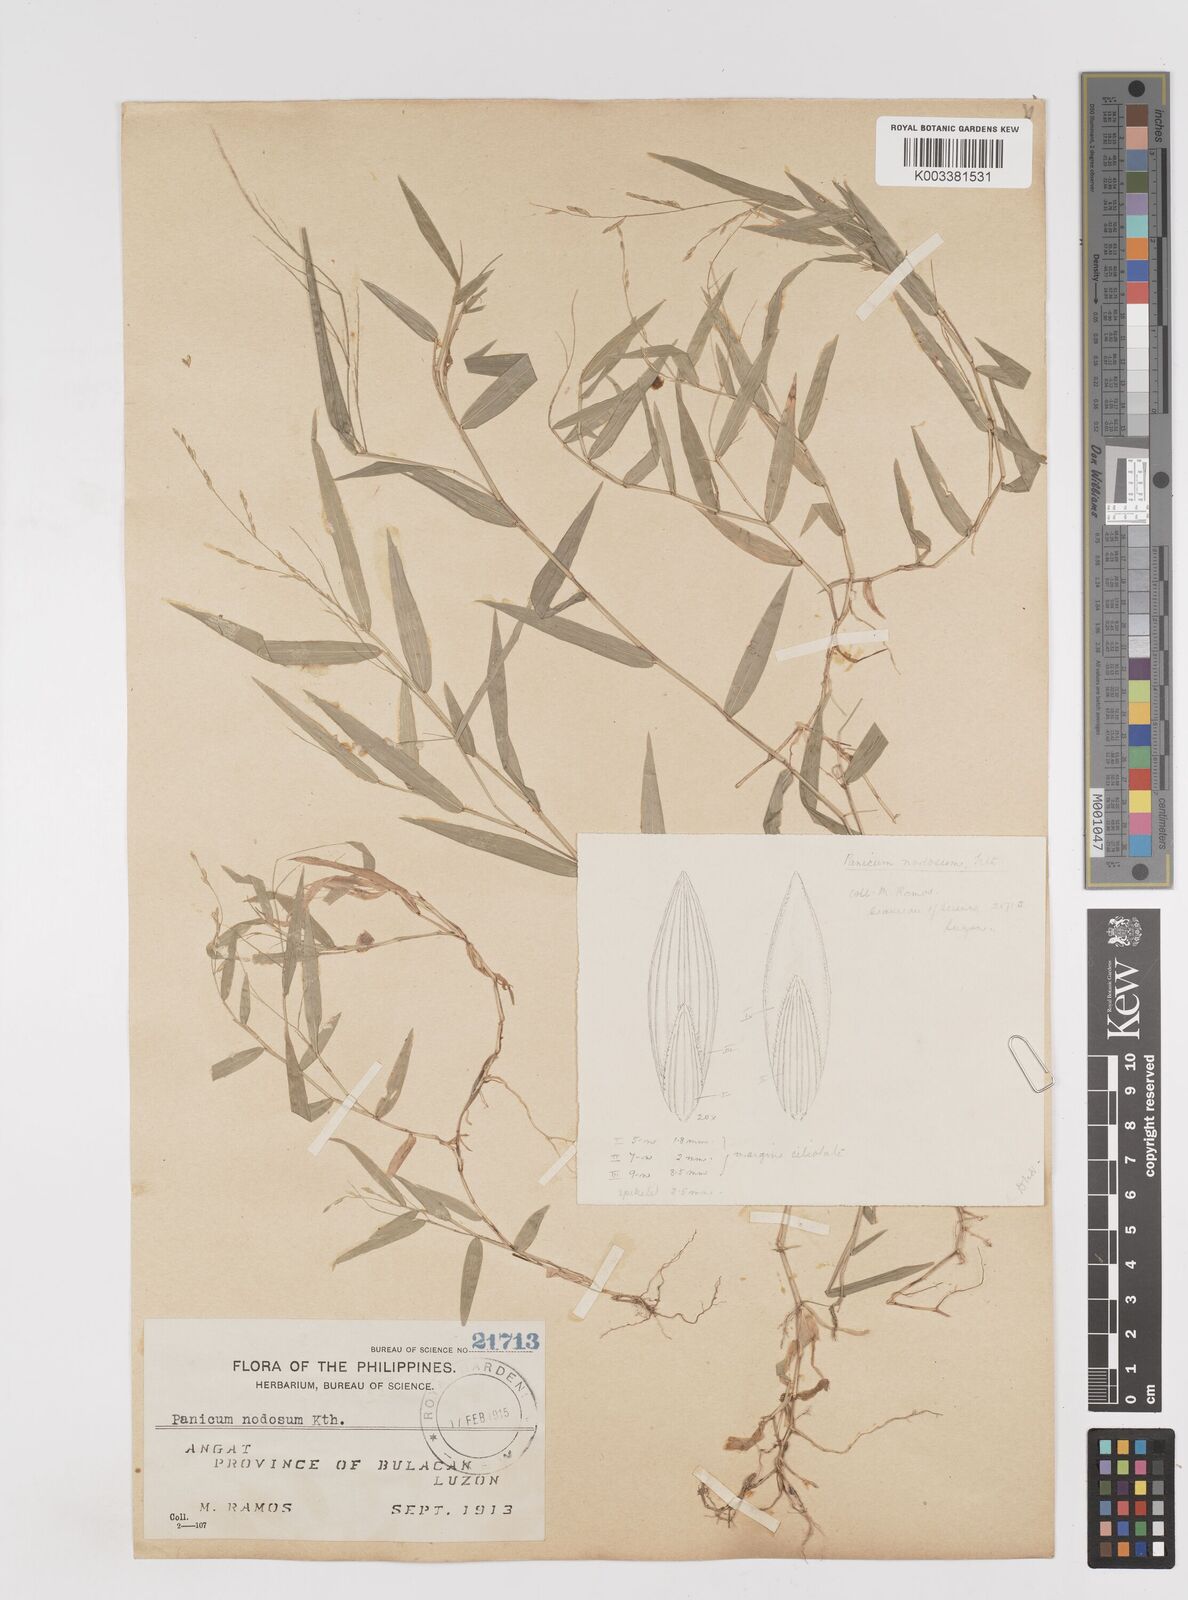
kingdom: Plantae
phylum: Tracheophyta
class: Liliopsida
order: Poales
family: Poaceae
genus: Ottochloa
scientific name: Ottochloa nodosa
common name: Slender-panic grass
